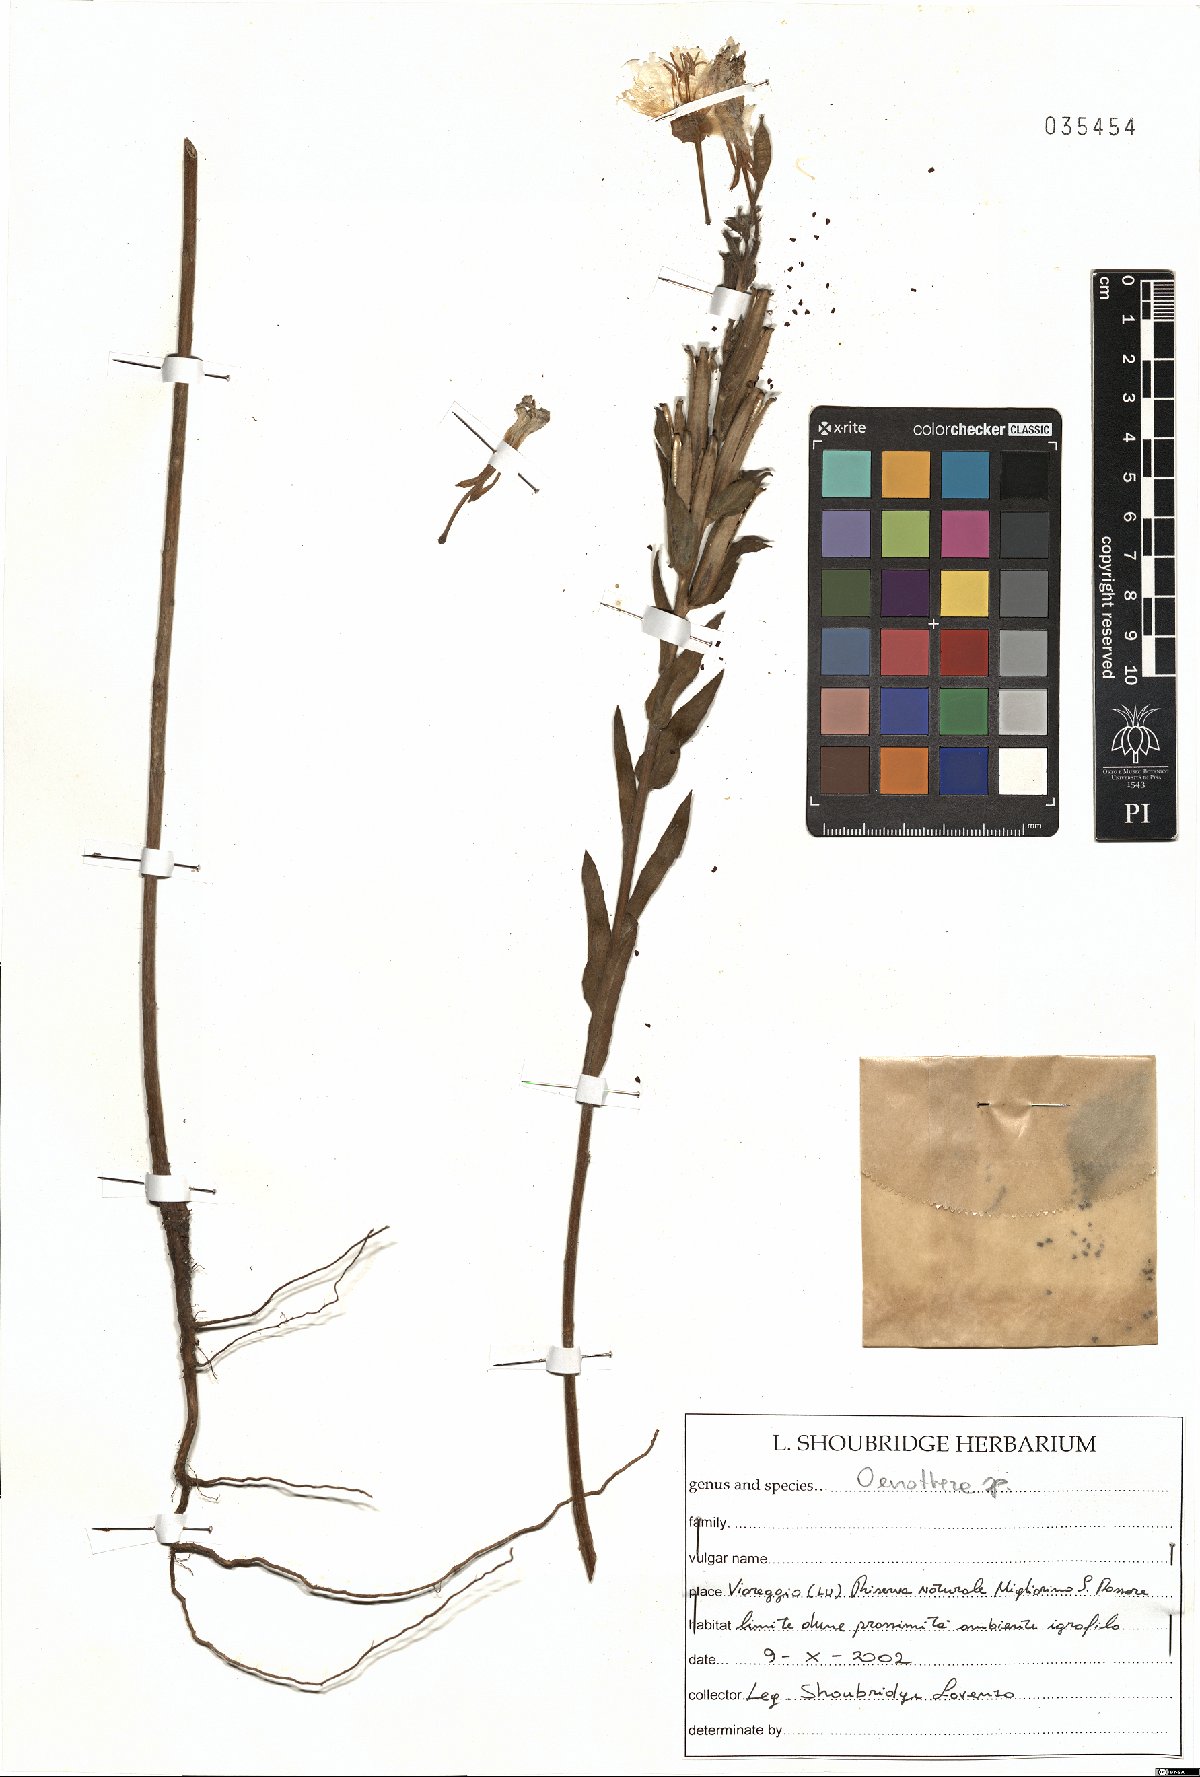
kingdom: Plantae
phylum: Tracheophyta
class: Magnoliopsida
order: Myrtales
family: Onagraceae
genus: Oenothera
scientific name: Oenothera
